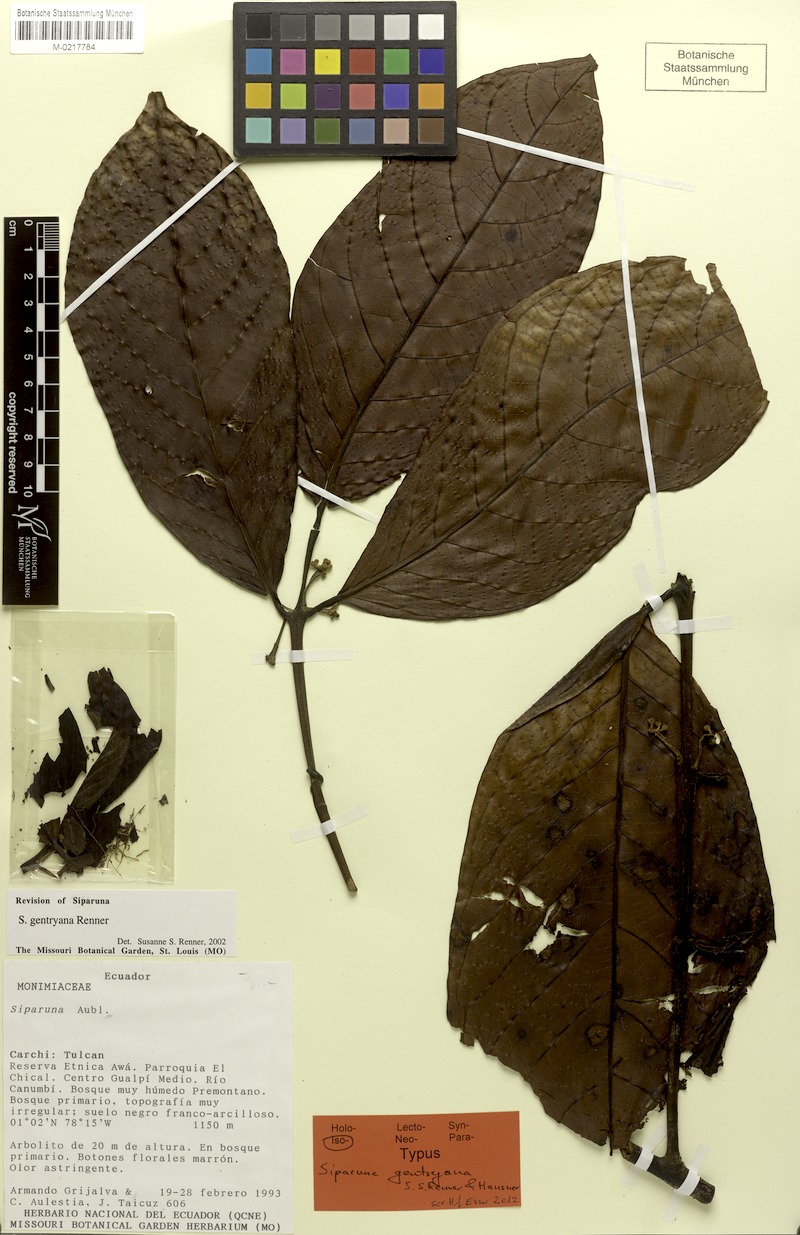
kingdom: Plantae
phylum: Tracheophyta
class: Magnoliopsida
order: Laurales
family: Siparunaceae
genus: Siparuna
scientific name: Siparuna gentryana
